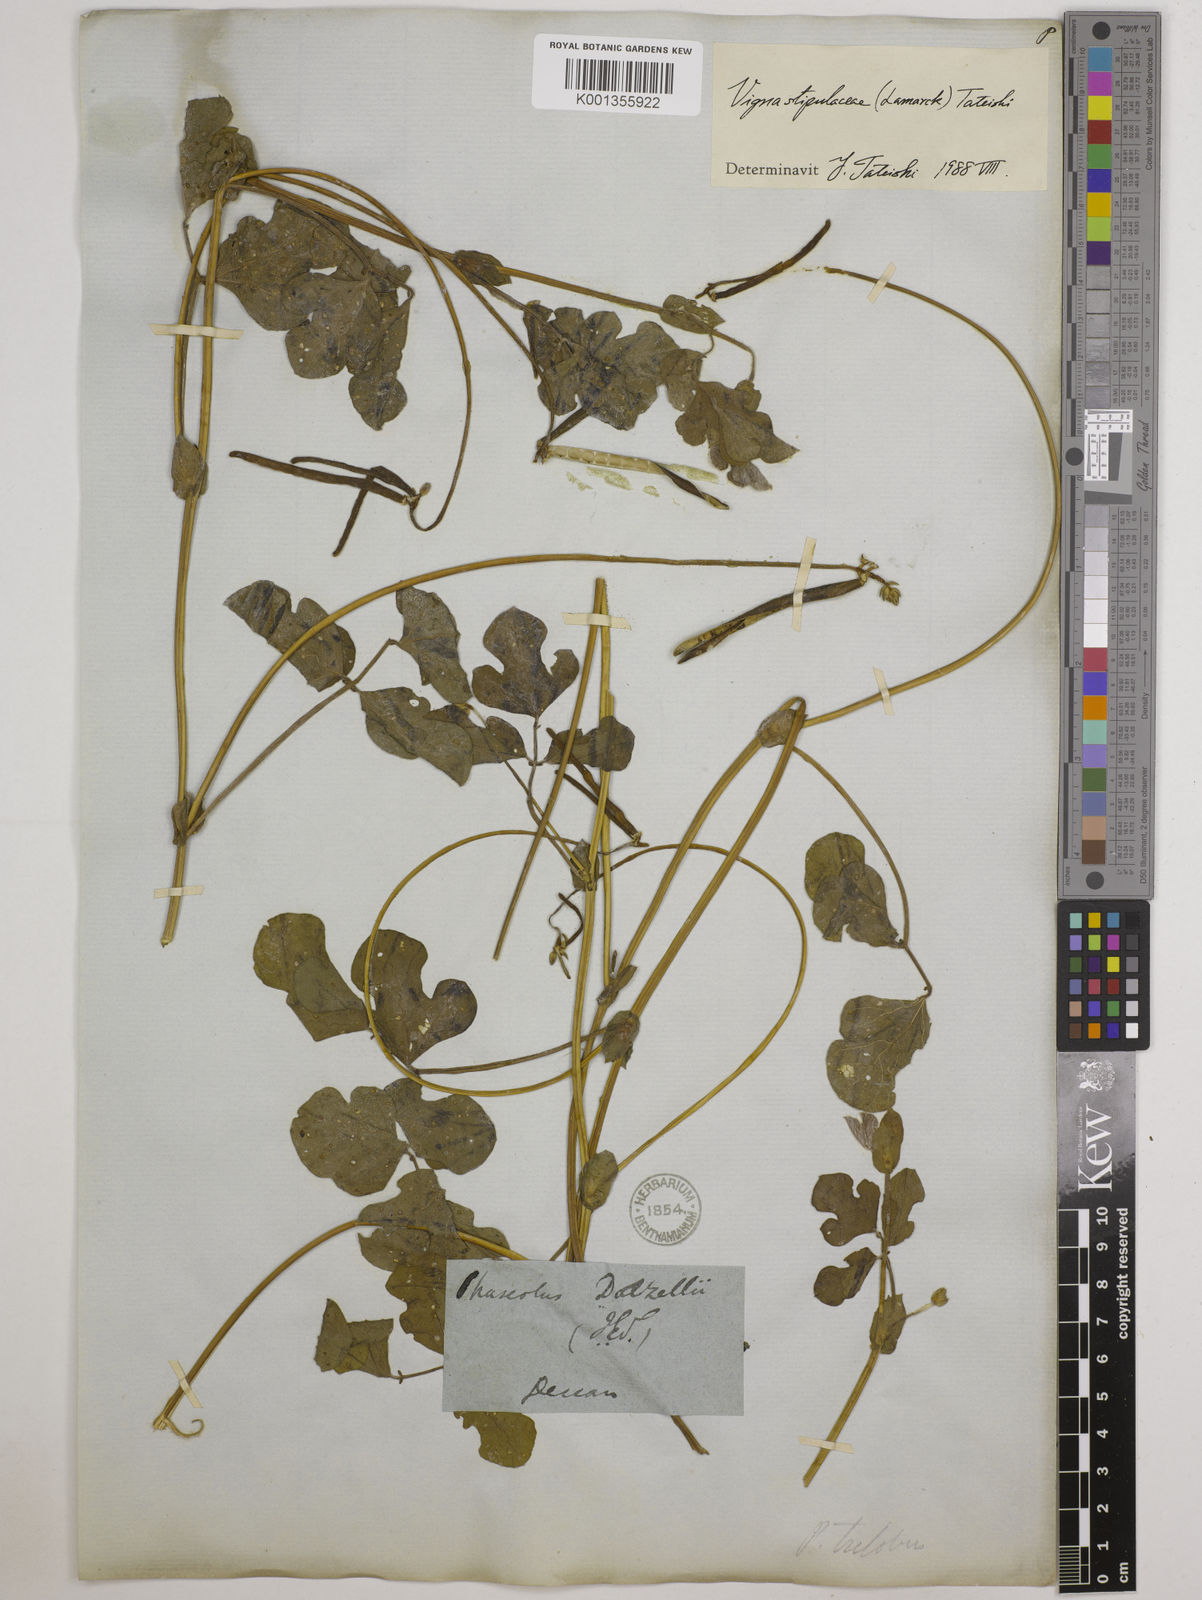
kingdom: Plantae
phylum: Tracheophyta
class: Magnoliopsida
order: Fabales
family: Fabaceae
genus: Pueraria
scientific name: Pueraria montana
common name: Kudzu
